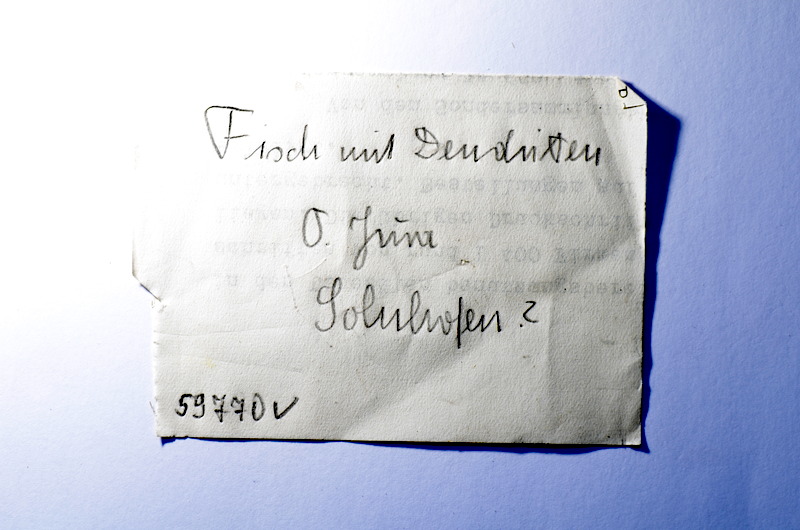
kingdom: Animalia
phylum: Chordata
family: Ascalaboidae
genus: Tharsis
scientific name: Tharsis dubius
